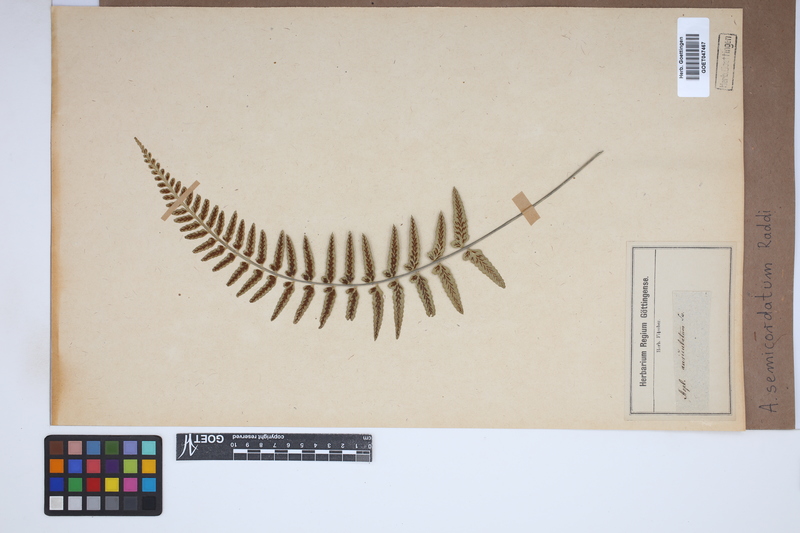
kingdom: Plantae
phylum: Tracheophyta
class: Polypodiopsida
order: Polypodiales
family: Aspleniaceae
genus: Asplenium
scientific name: Asplenium auriculatum
